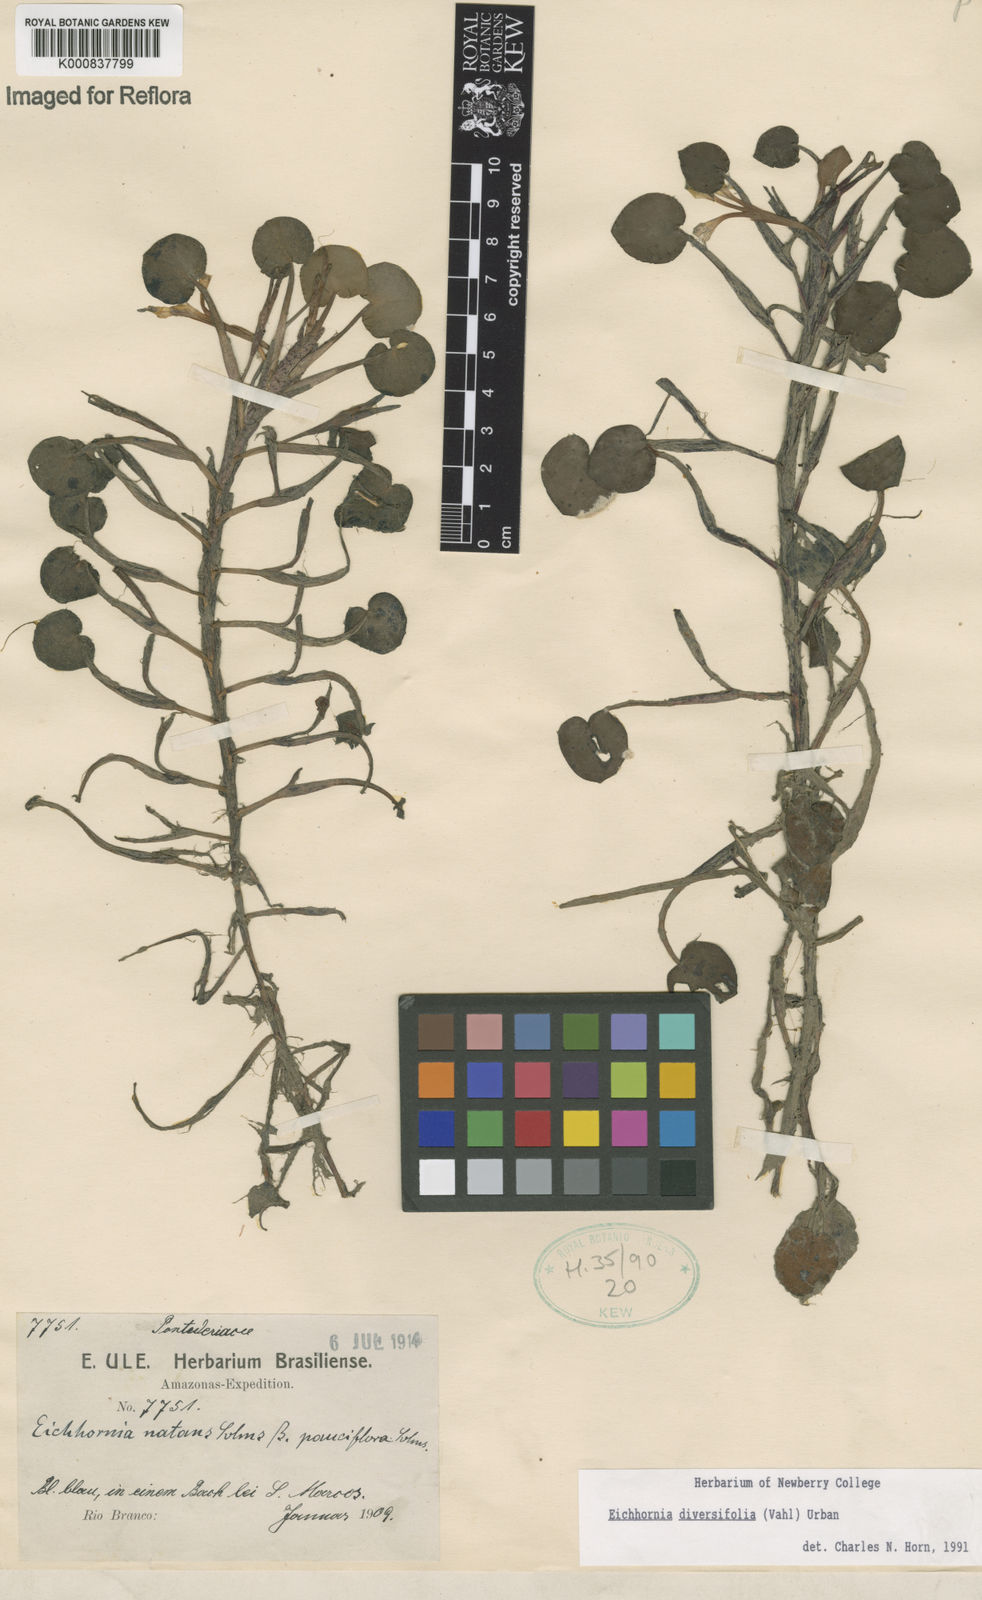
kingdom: Plantae
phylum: Tracheophyta
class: Liliopsida
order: Commelinales
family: Pontederiaceae
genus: Pontederia
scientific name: Pontederia diversifolia
